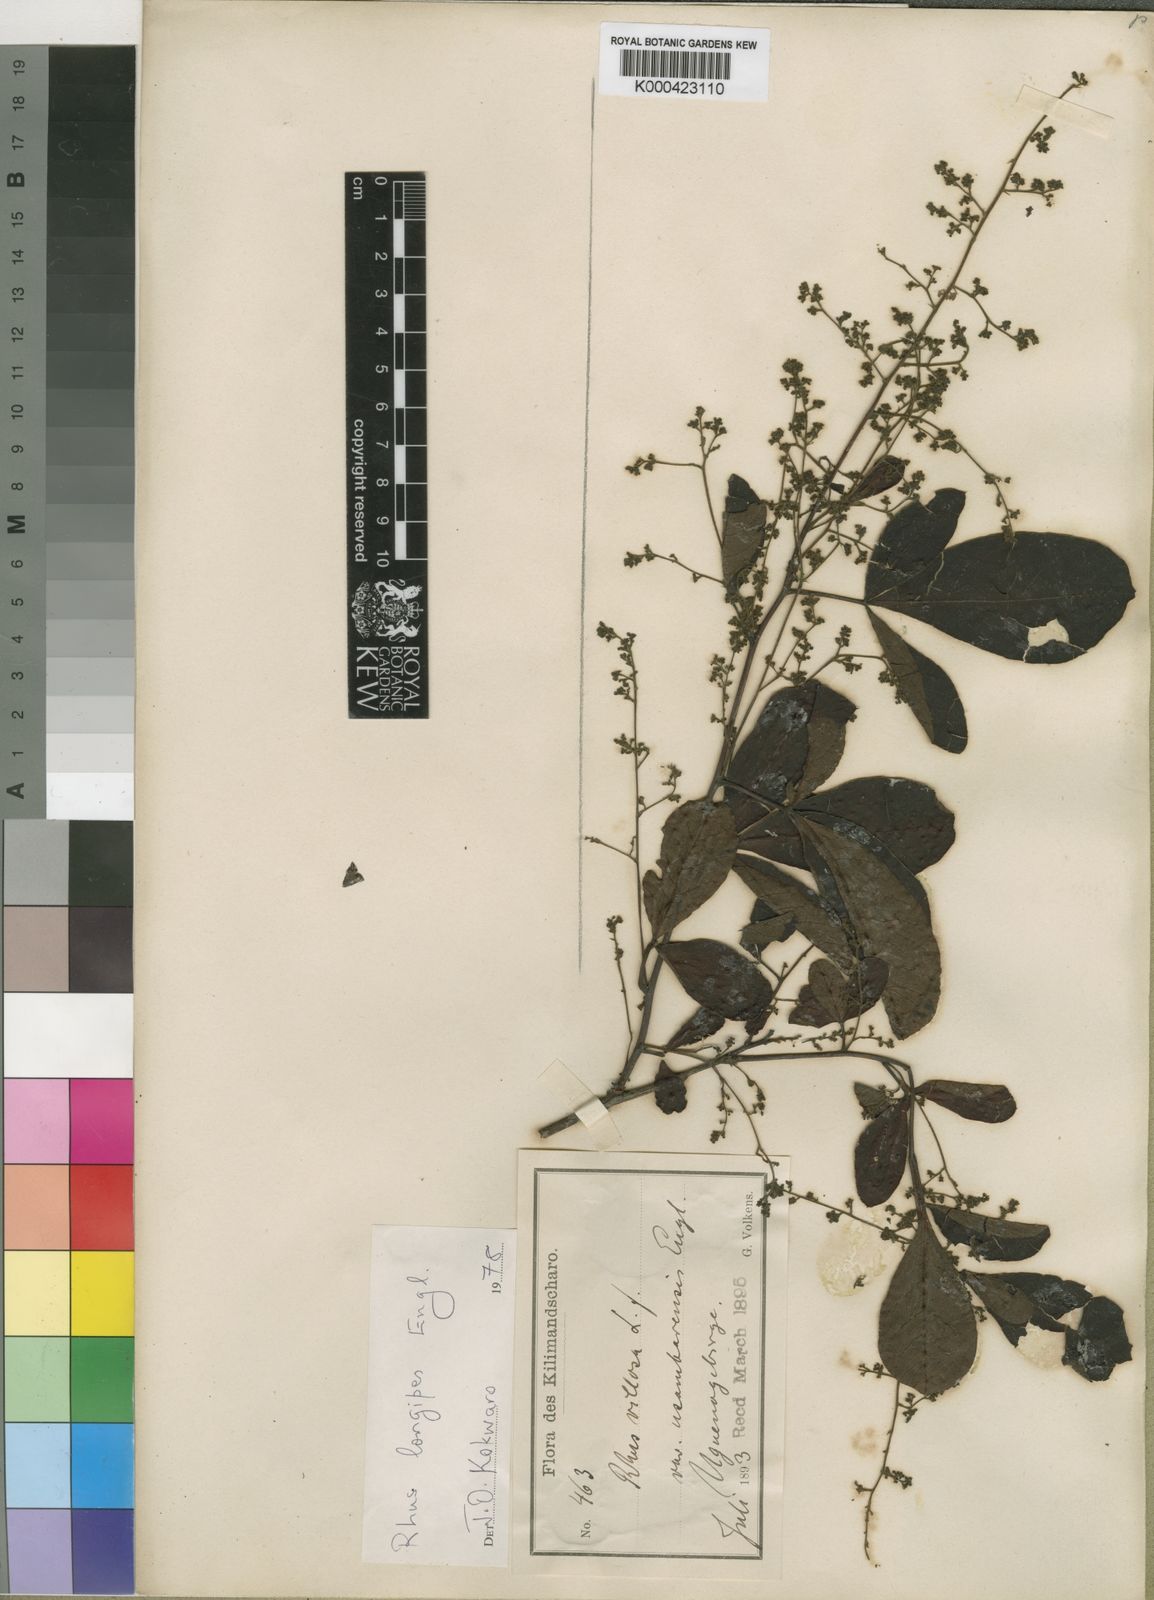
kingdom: Plantae
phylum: Tracheophyta
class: Magnoliopsida
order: Sapindales
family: Anacardiaceae
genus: Searsia
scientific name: Searsia longipes
